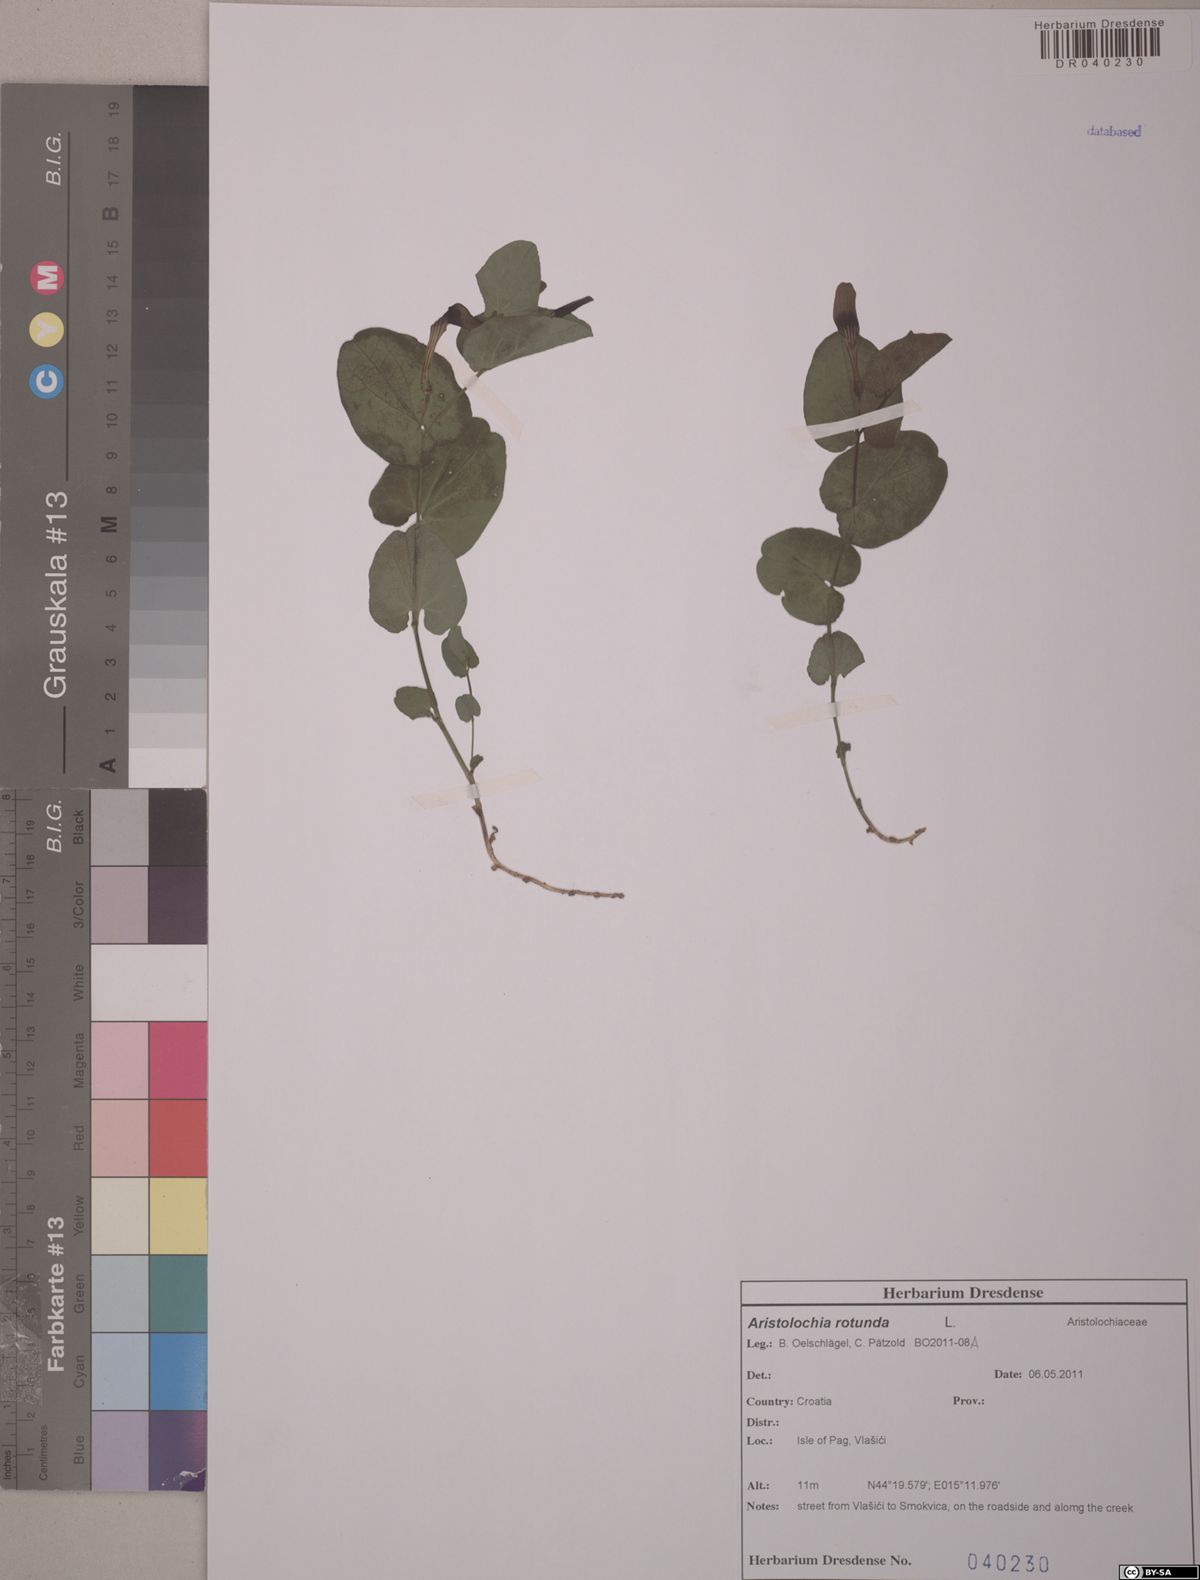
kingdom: Plantae
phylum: Tracheophyta
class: Magnoliopsida
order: Piperales
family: Aristolochiaceae
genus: Aristolochia
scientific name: Aristolochia rotunda
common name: Smearwort
